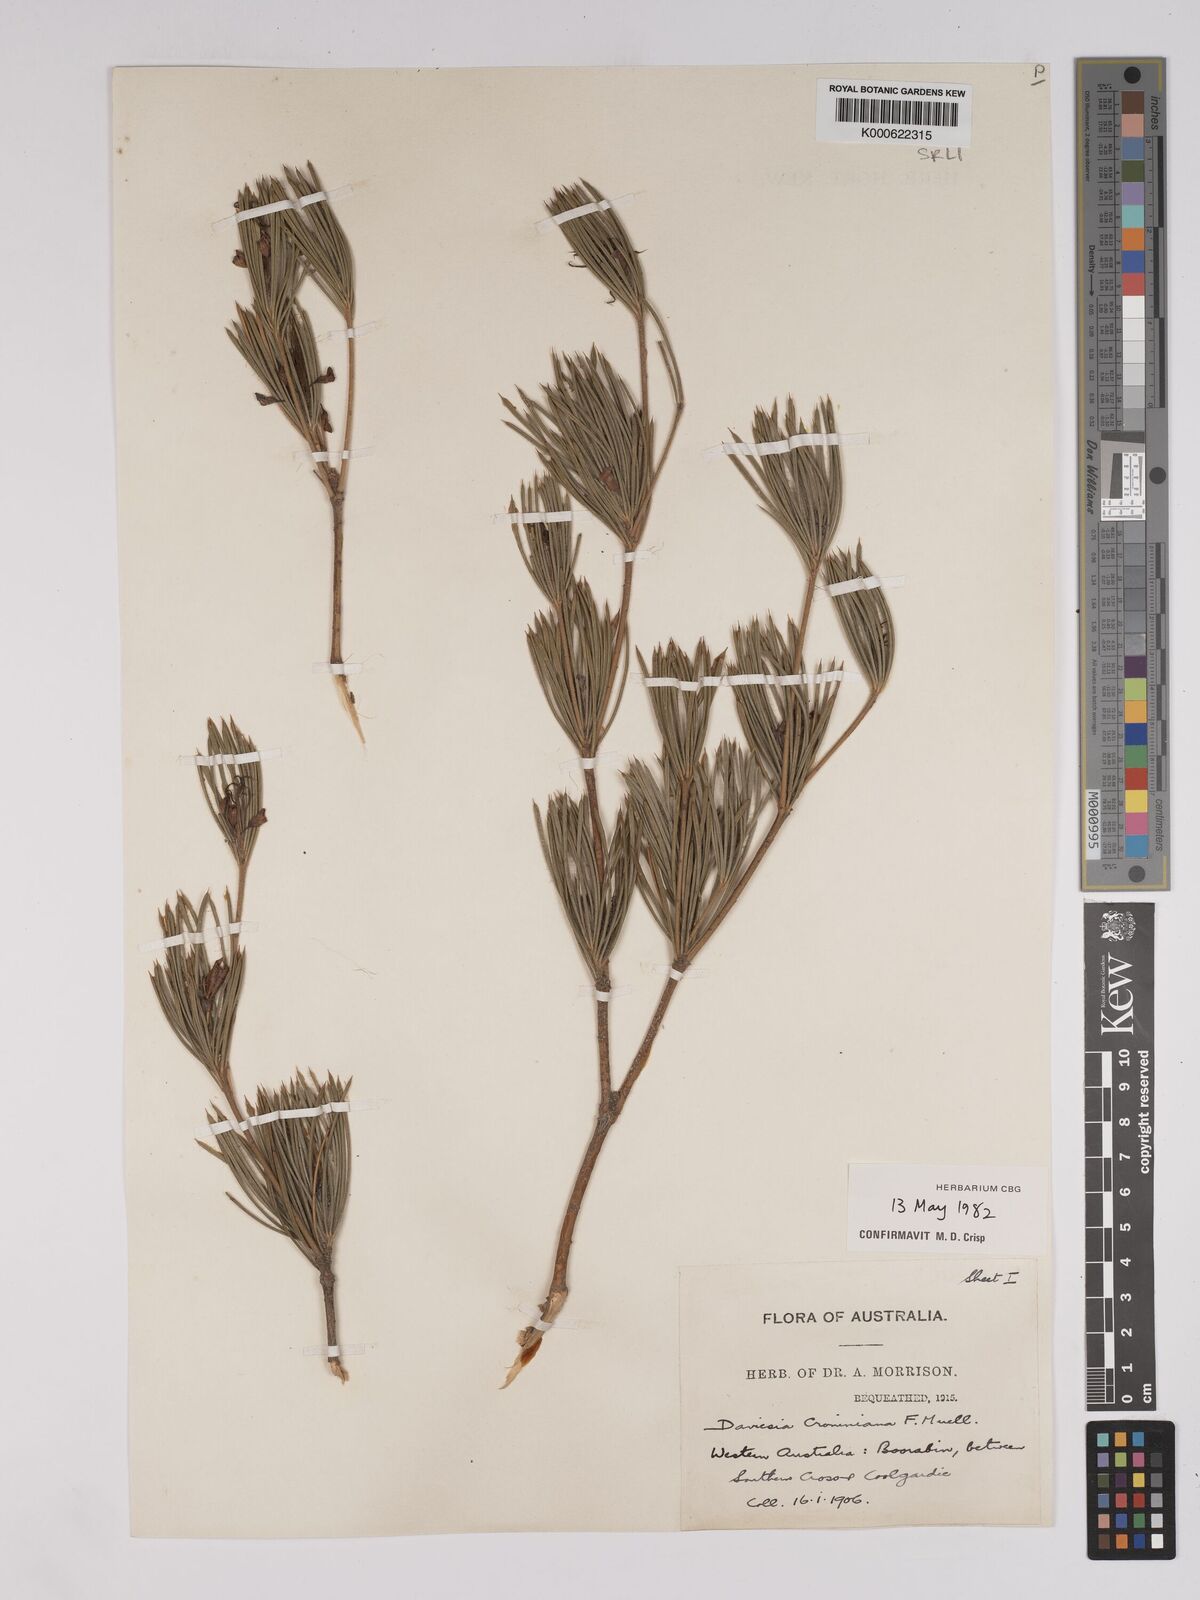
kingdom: Plantae
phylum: Tracheophyta
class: Magnoliopsida
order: Fabales
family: Fabaceae
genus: Daviesia
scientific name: Daviesia croniniana
